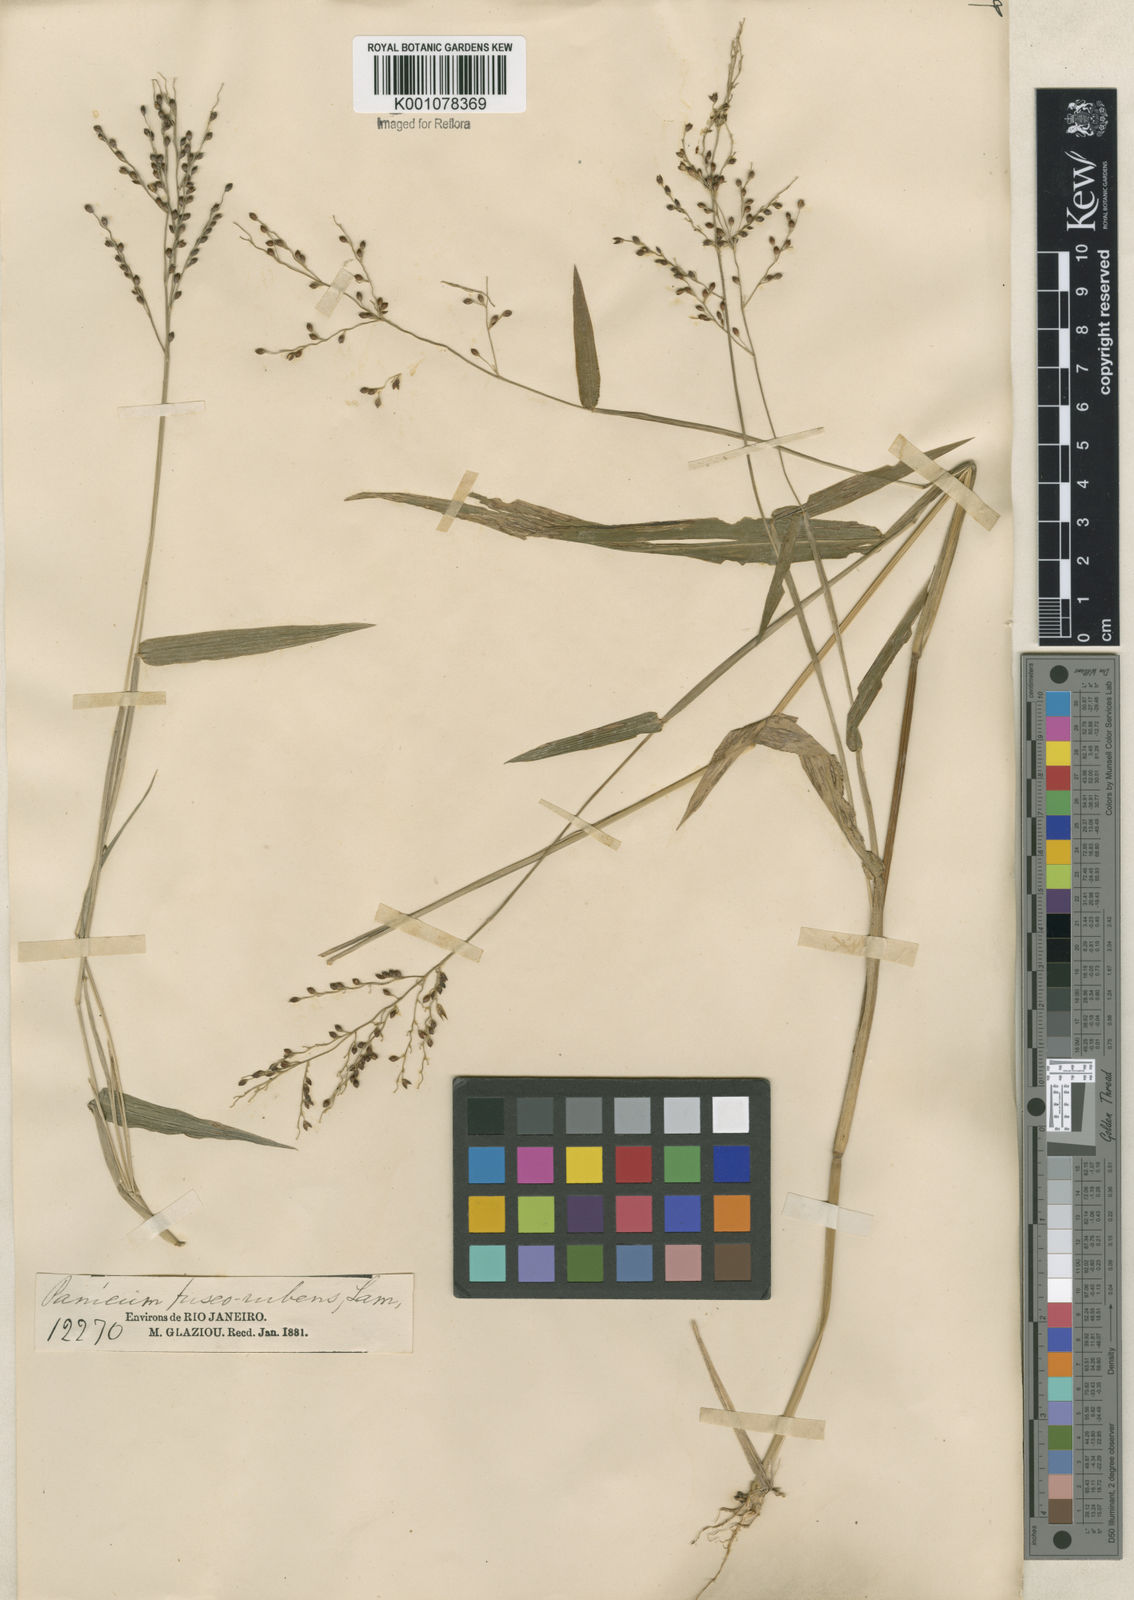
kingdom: Plantae
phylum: Tracheophyta
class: Liliopsida
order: Poales
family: Poaceae
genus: Urochloa
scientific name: Urochloa fusca
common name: Browntop signal grass
